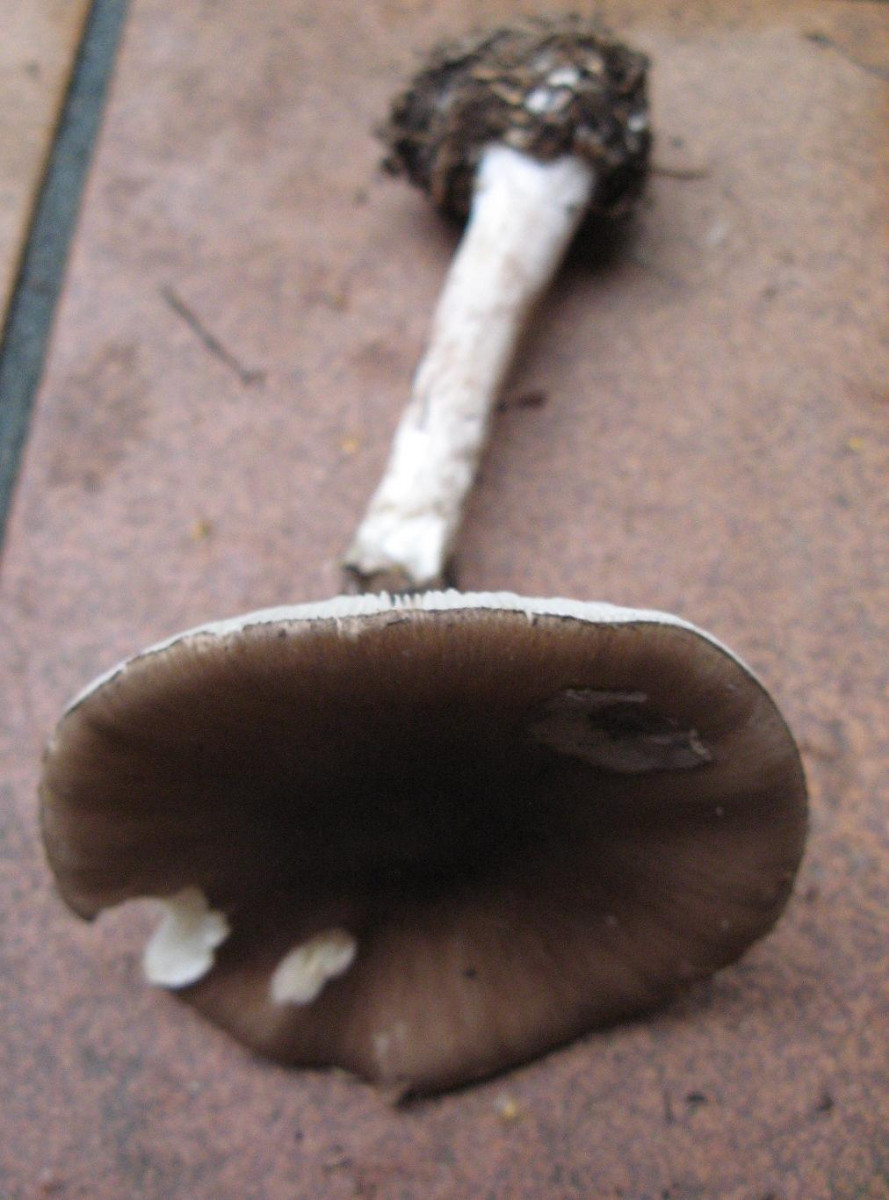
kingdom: Fungi
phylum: Basidiomycota
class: Agaricomycetes
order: Agaricales
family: Amanitaceae
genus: Amanita
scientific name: Amanita
